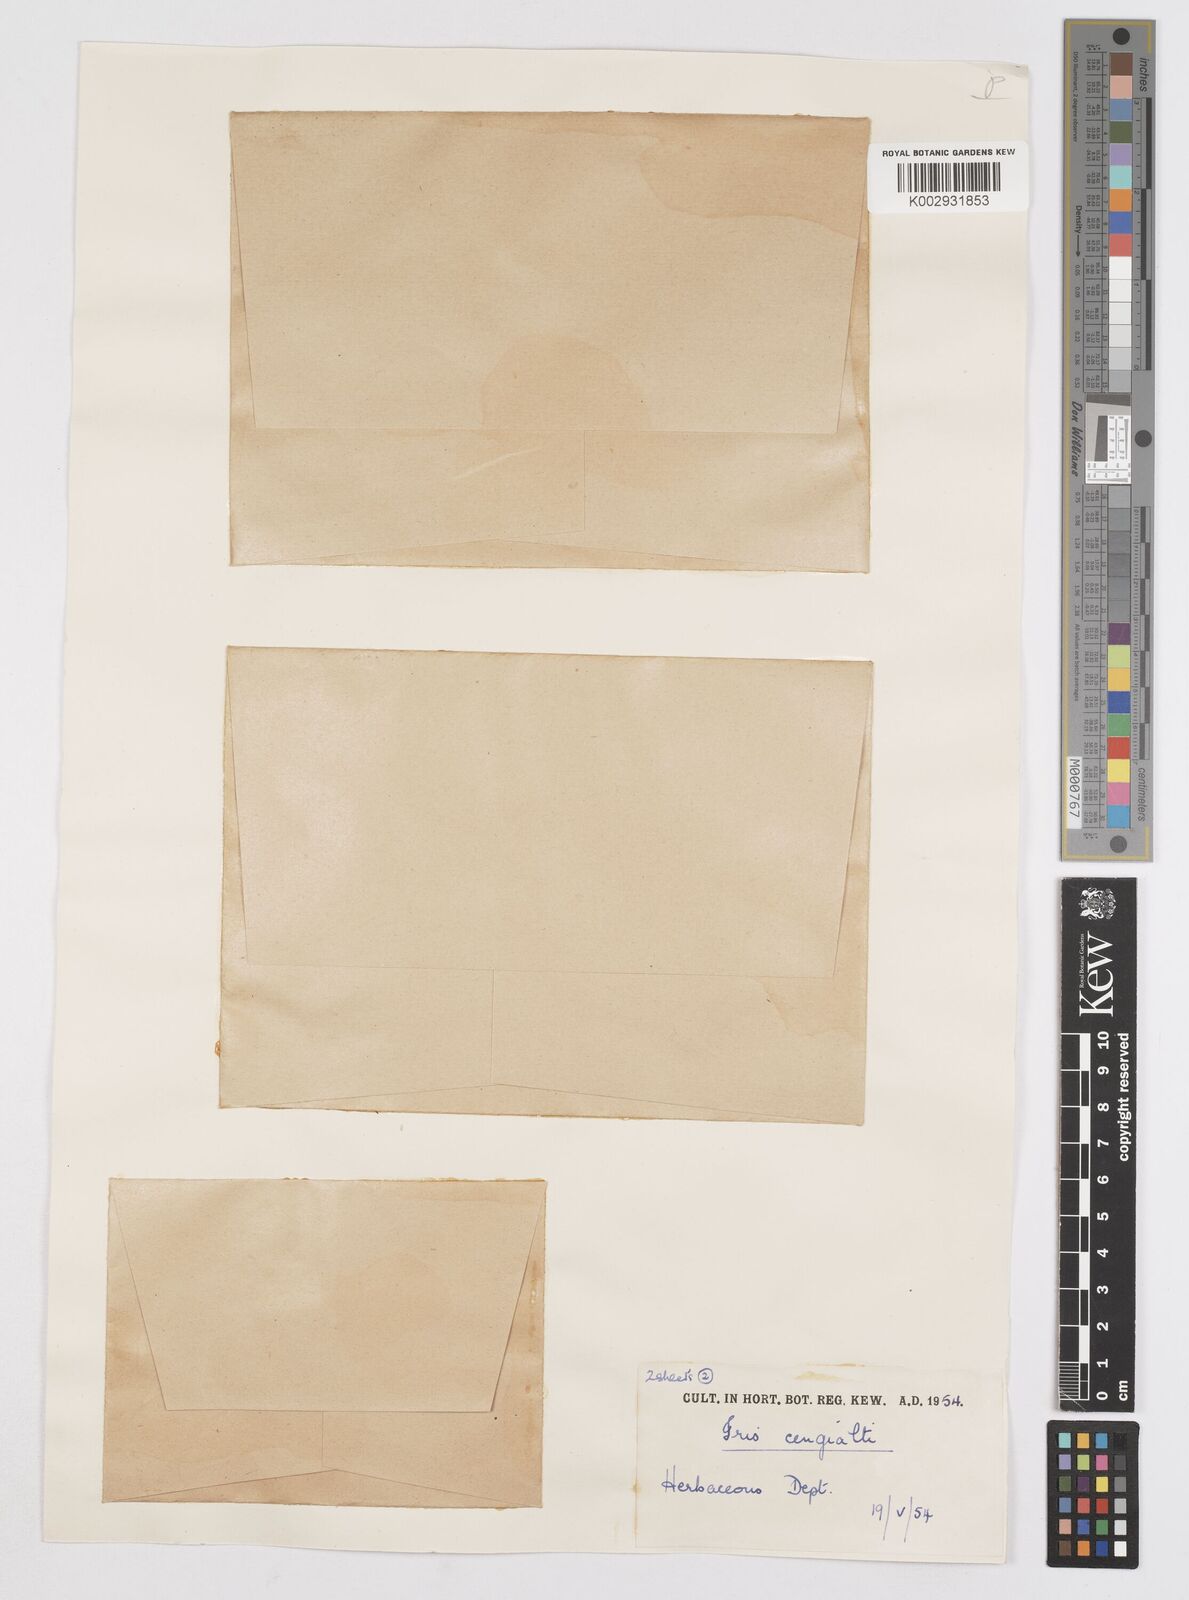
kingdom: Plantae
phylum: Tracheophyta
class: Liliopsida
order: Asparagales
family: Iridaceae
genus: Iris
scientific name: Iris pallida
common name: Sweet iris
